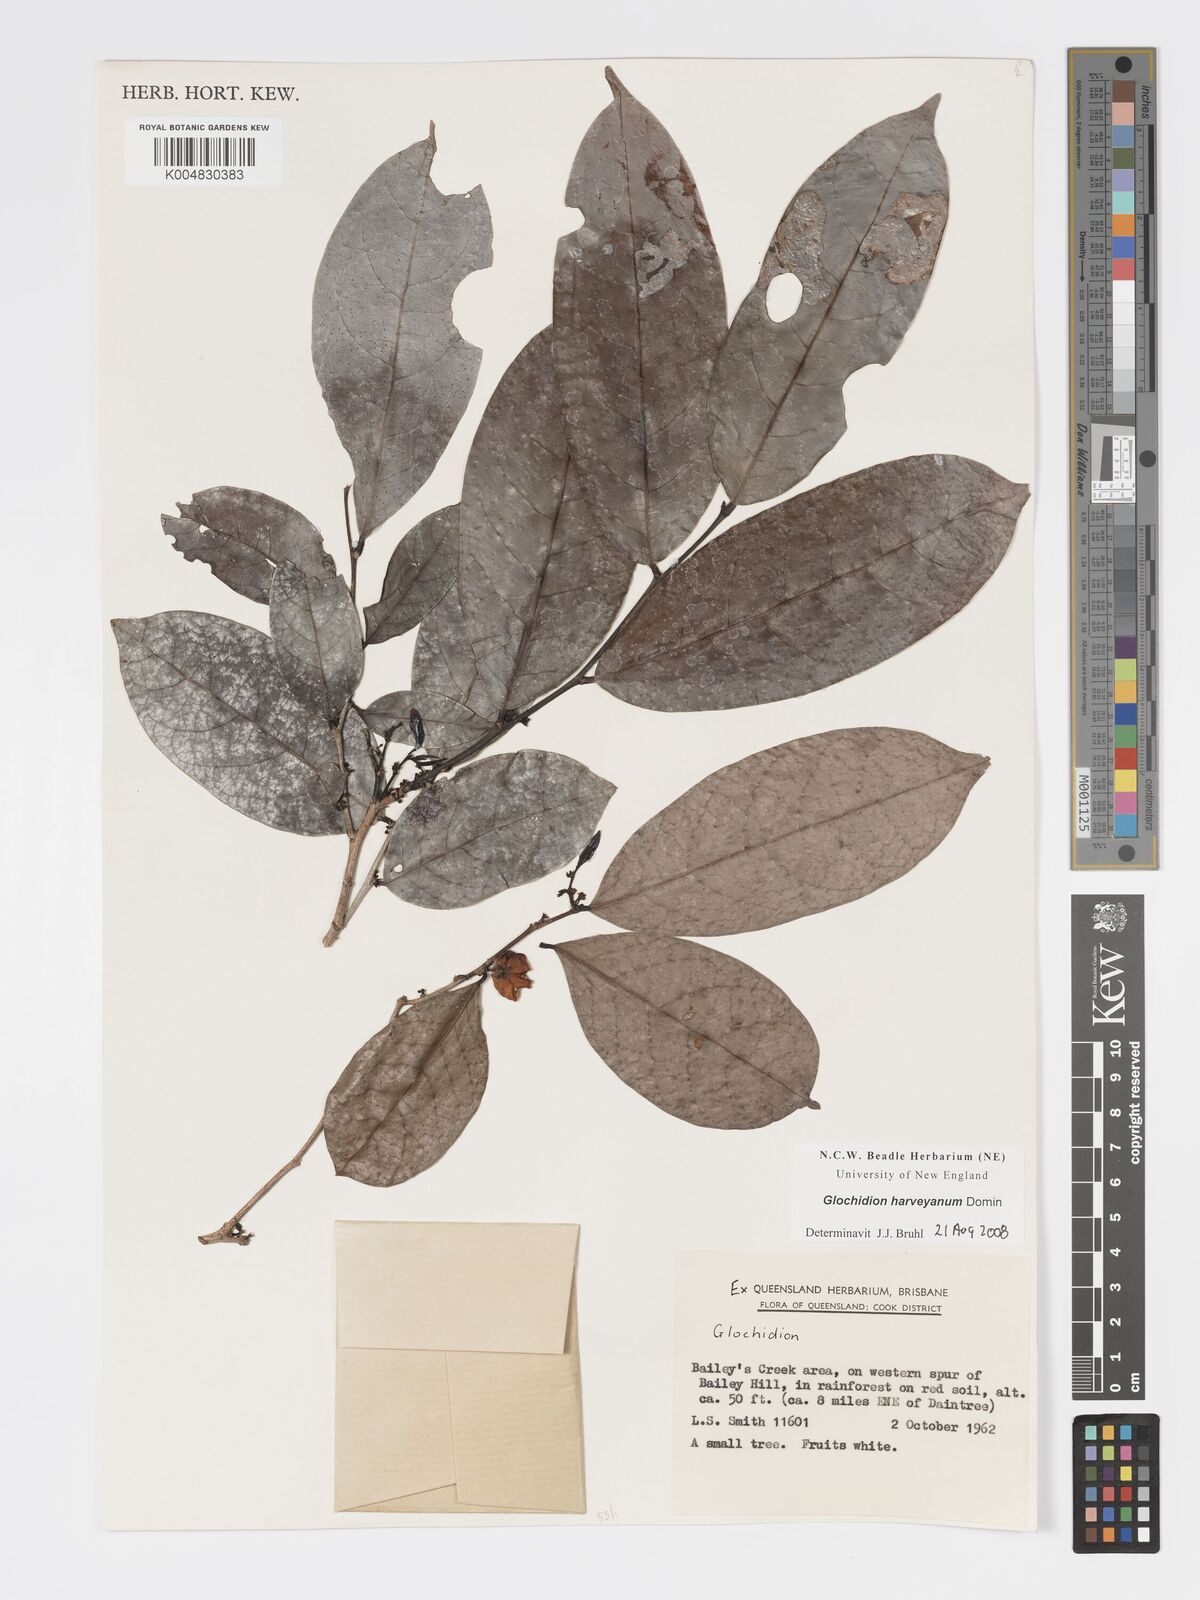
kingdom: Plantae
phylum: Tracheophyta
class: Magnoliopsida
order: Malpighiales
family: Phyllanthaceae
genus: Glochidion
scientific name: Glochidion harveyanum
